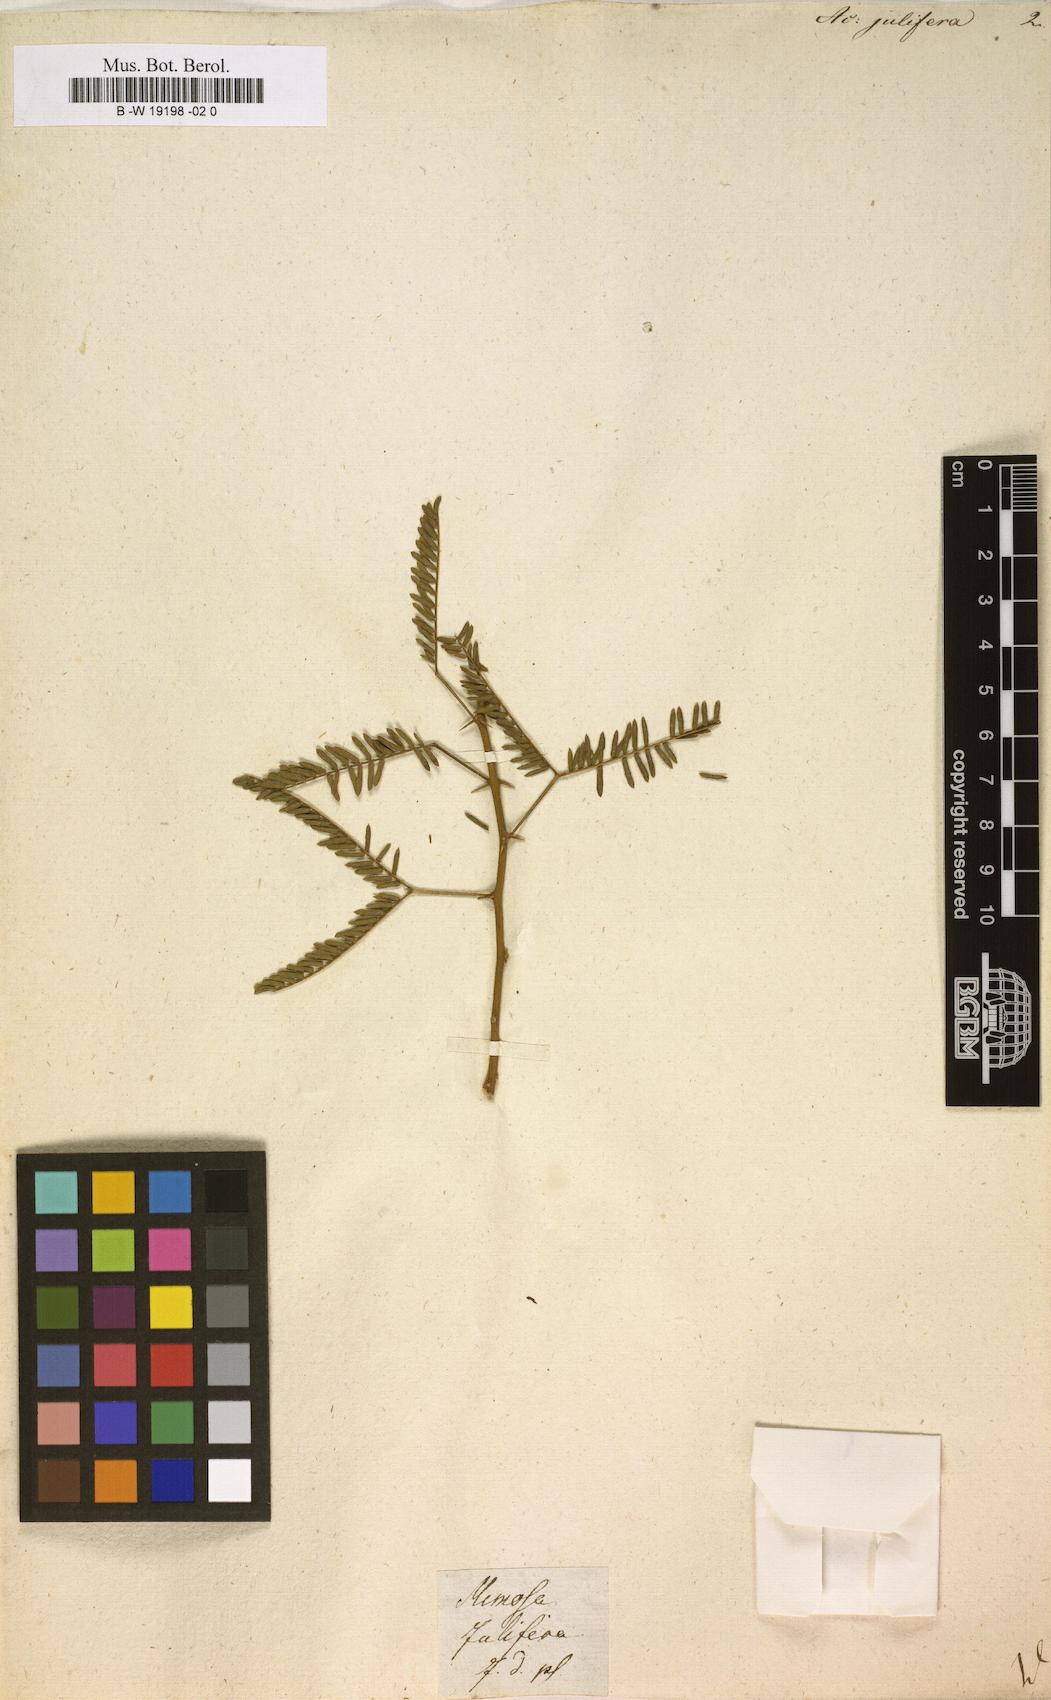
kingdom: Plantae
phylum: Tracheophyta
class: Magnoliopsida
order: Fabales
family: Fabaceae
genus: Prosopis
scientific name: Prosopis juliflora
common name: Mesquite
